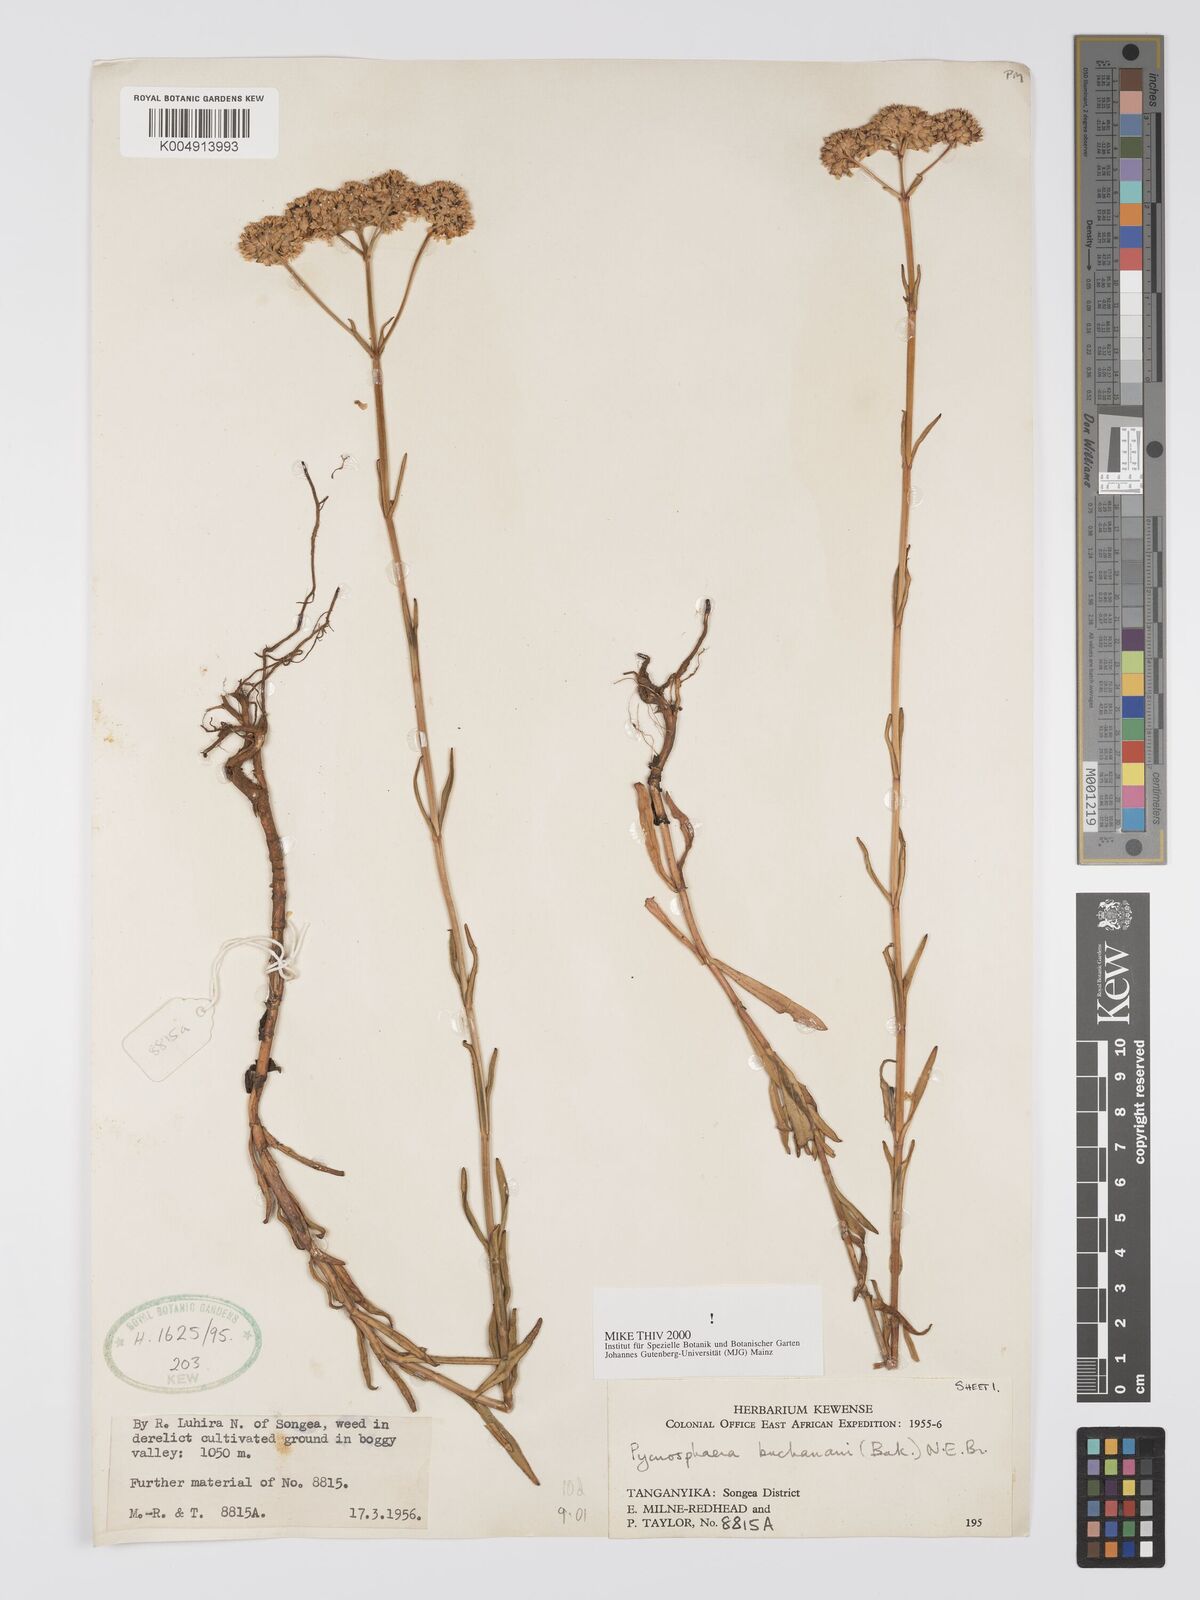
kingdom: Plantae
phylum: Tracheophyta
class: Magnoliopsida
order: Gentianales
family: Gentianaceae
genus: Pycnosphaera
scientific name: Pycnosphaera buchananii
